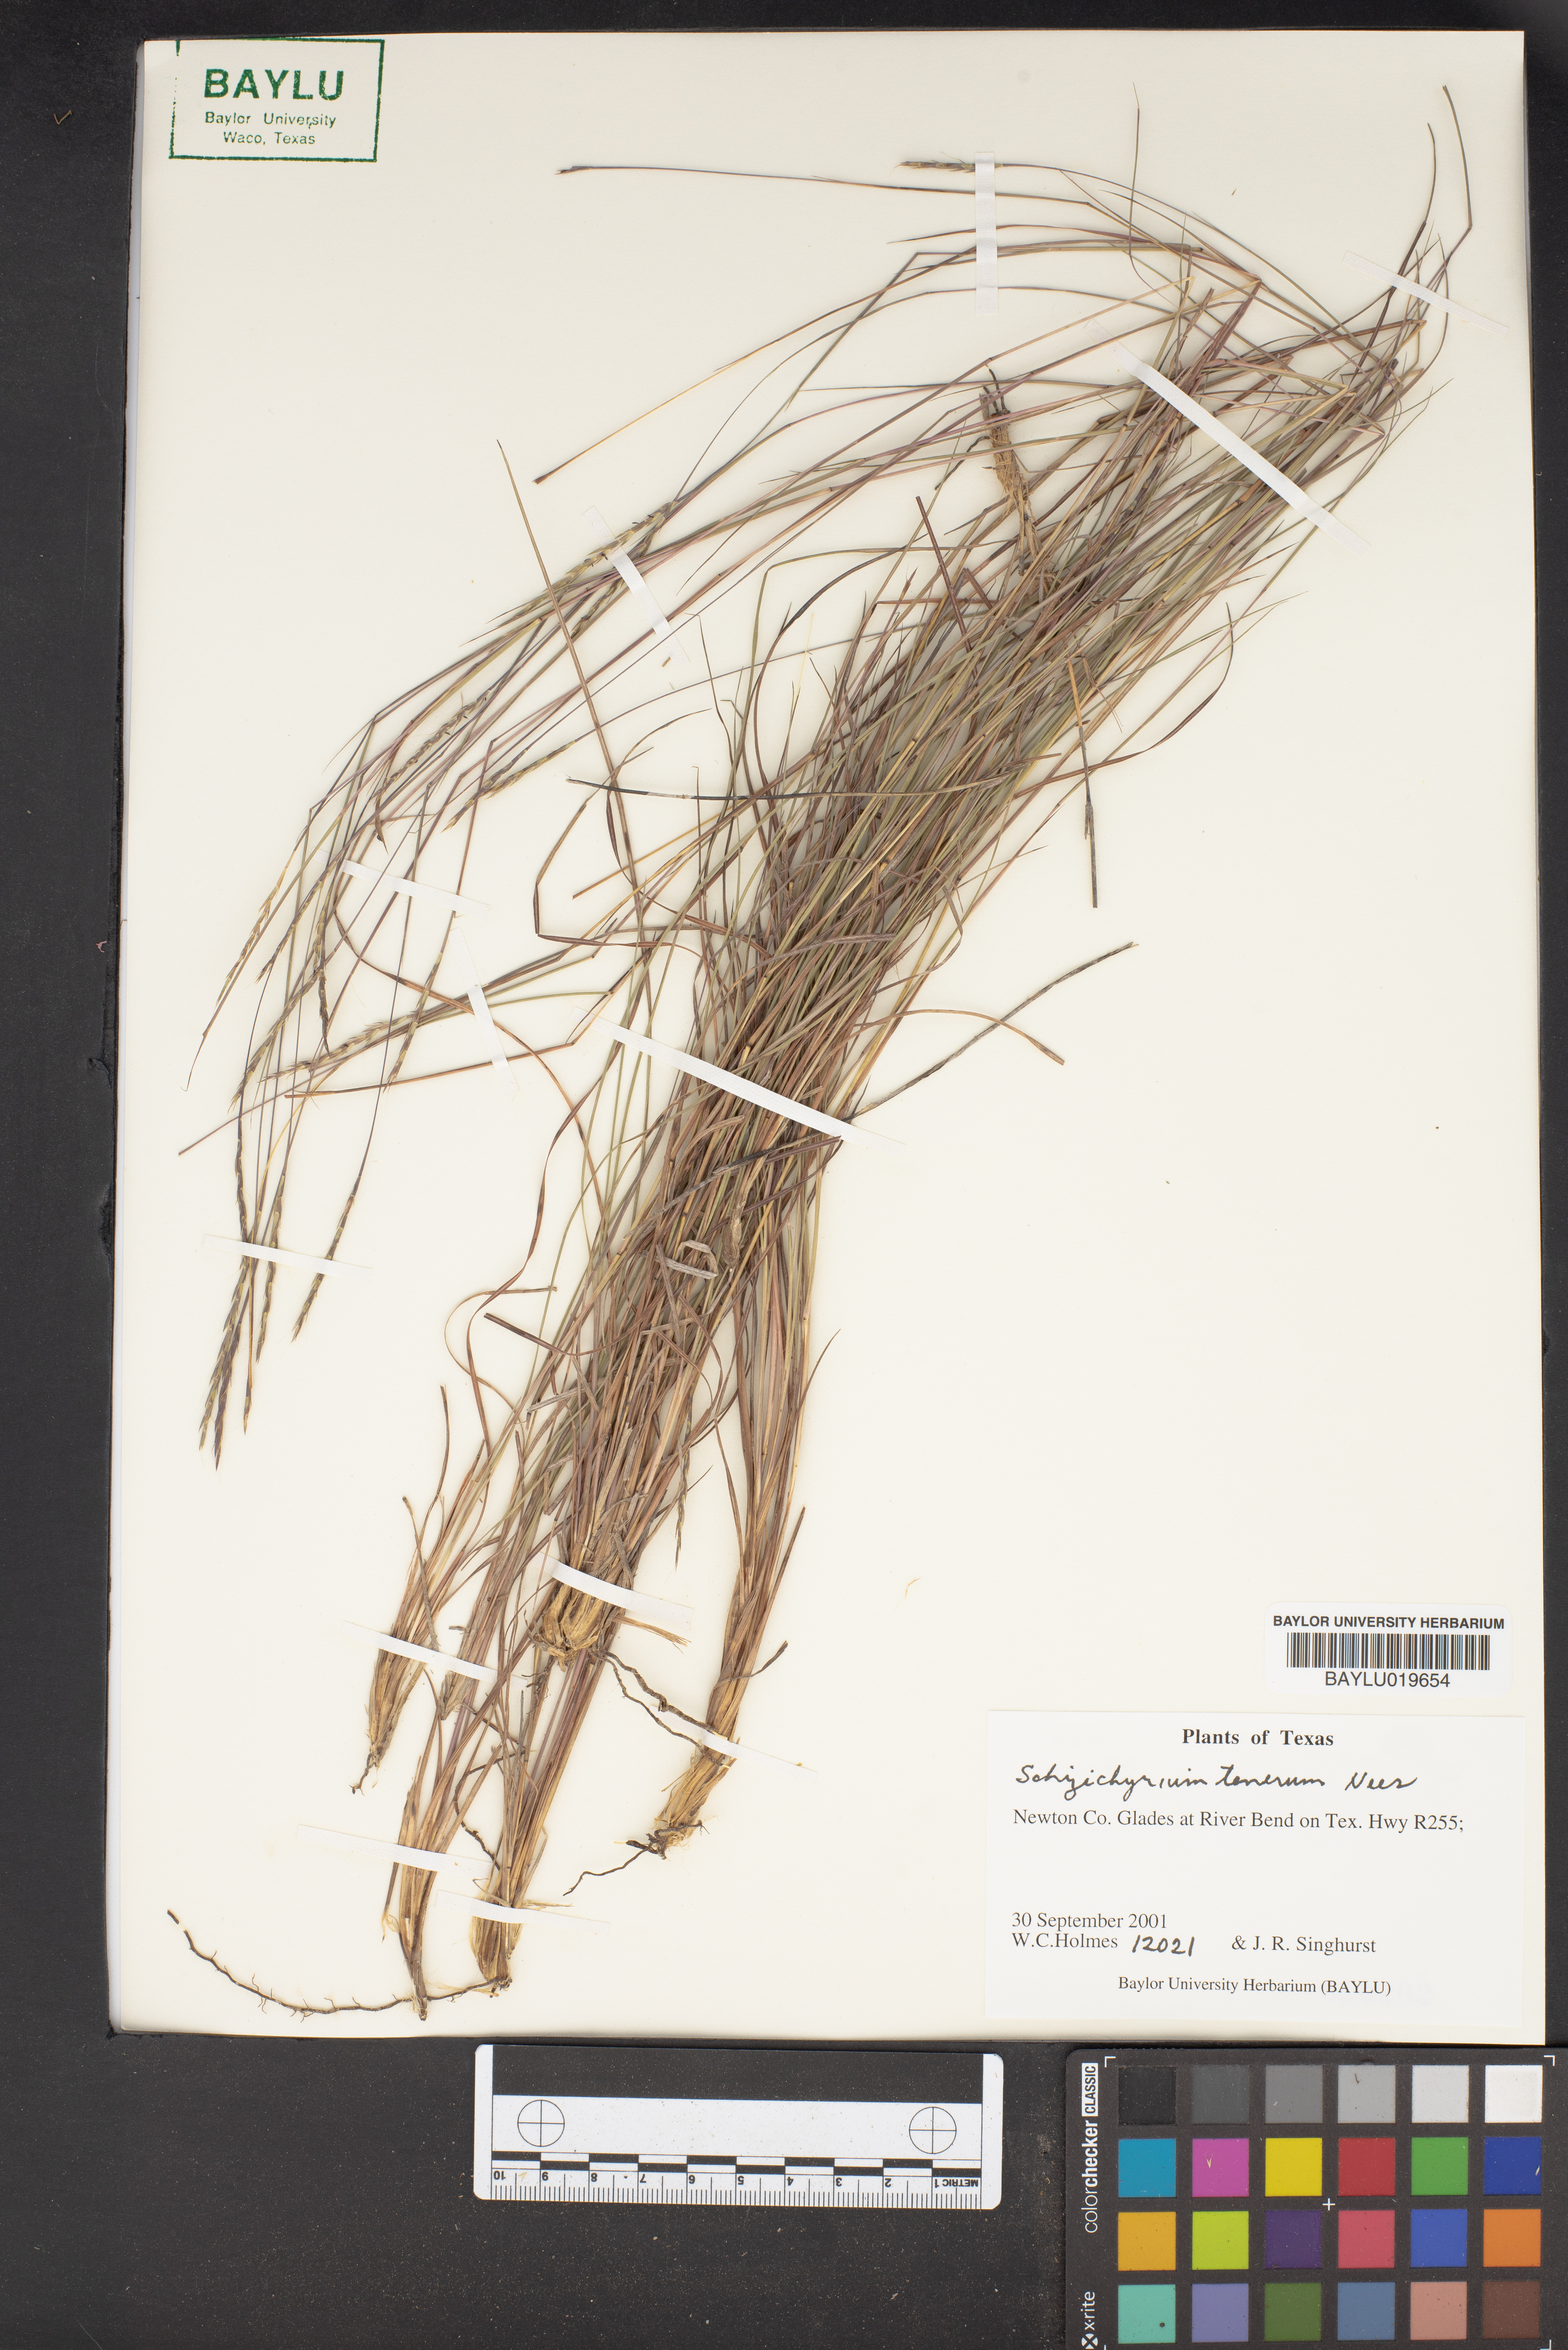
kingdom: Plantae
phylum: Tracheophyta
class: Liliopsida
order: Poales
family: Poaceae
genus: Andropogon
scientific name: Andropogon tener
